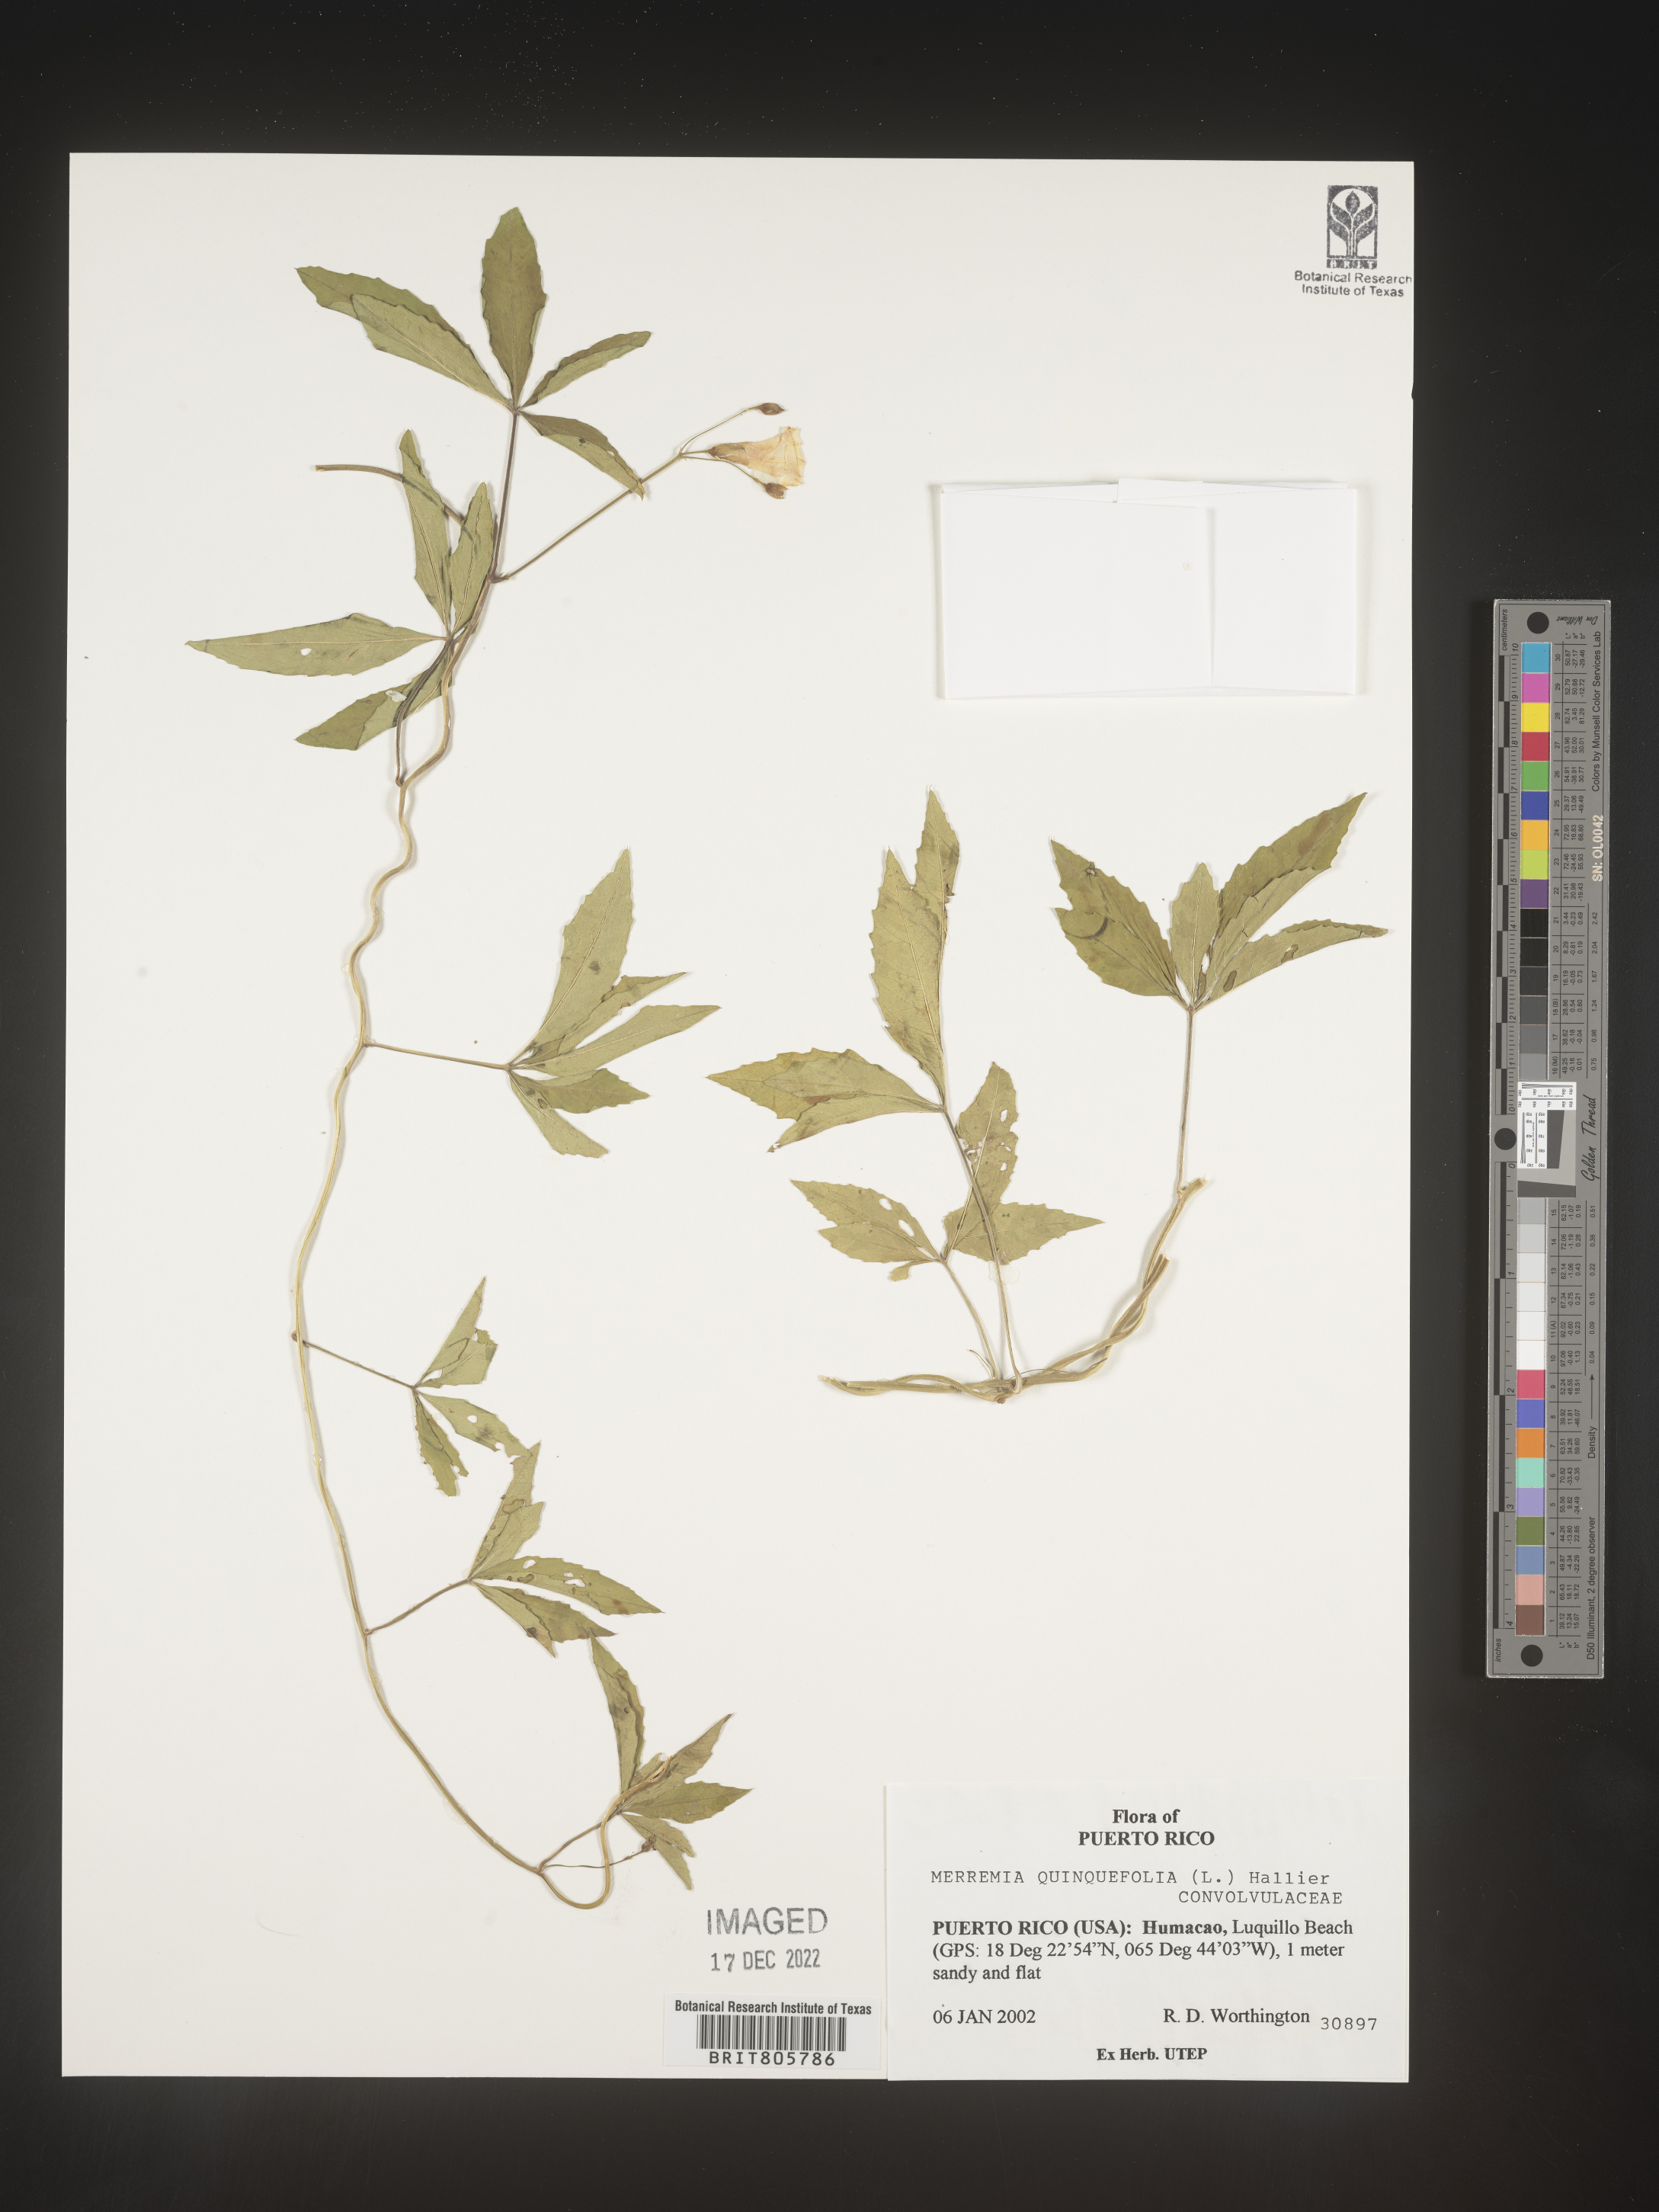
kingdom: Plantae
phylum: Tracheophyta
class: Magnoliopsida
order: Solanales
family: Convolvulaceae
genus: Merremia
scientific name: Merremia
